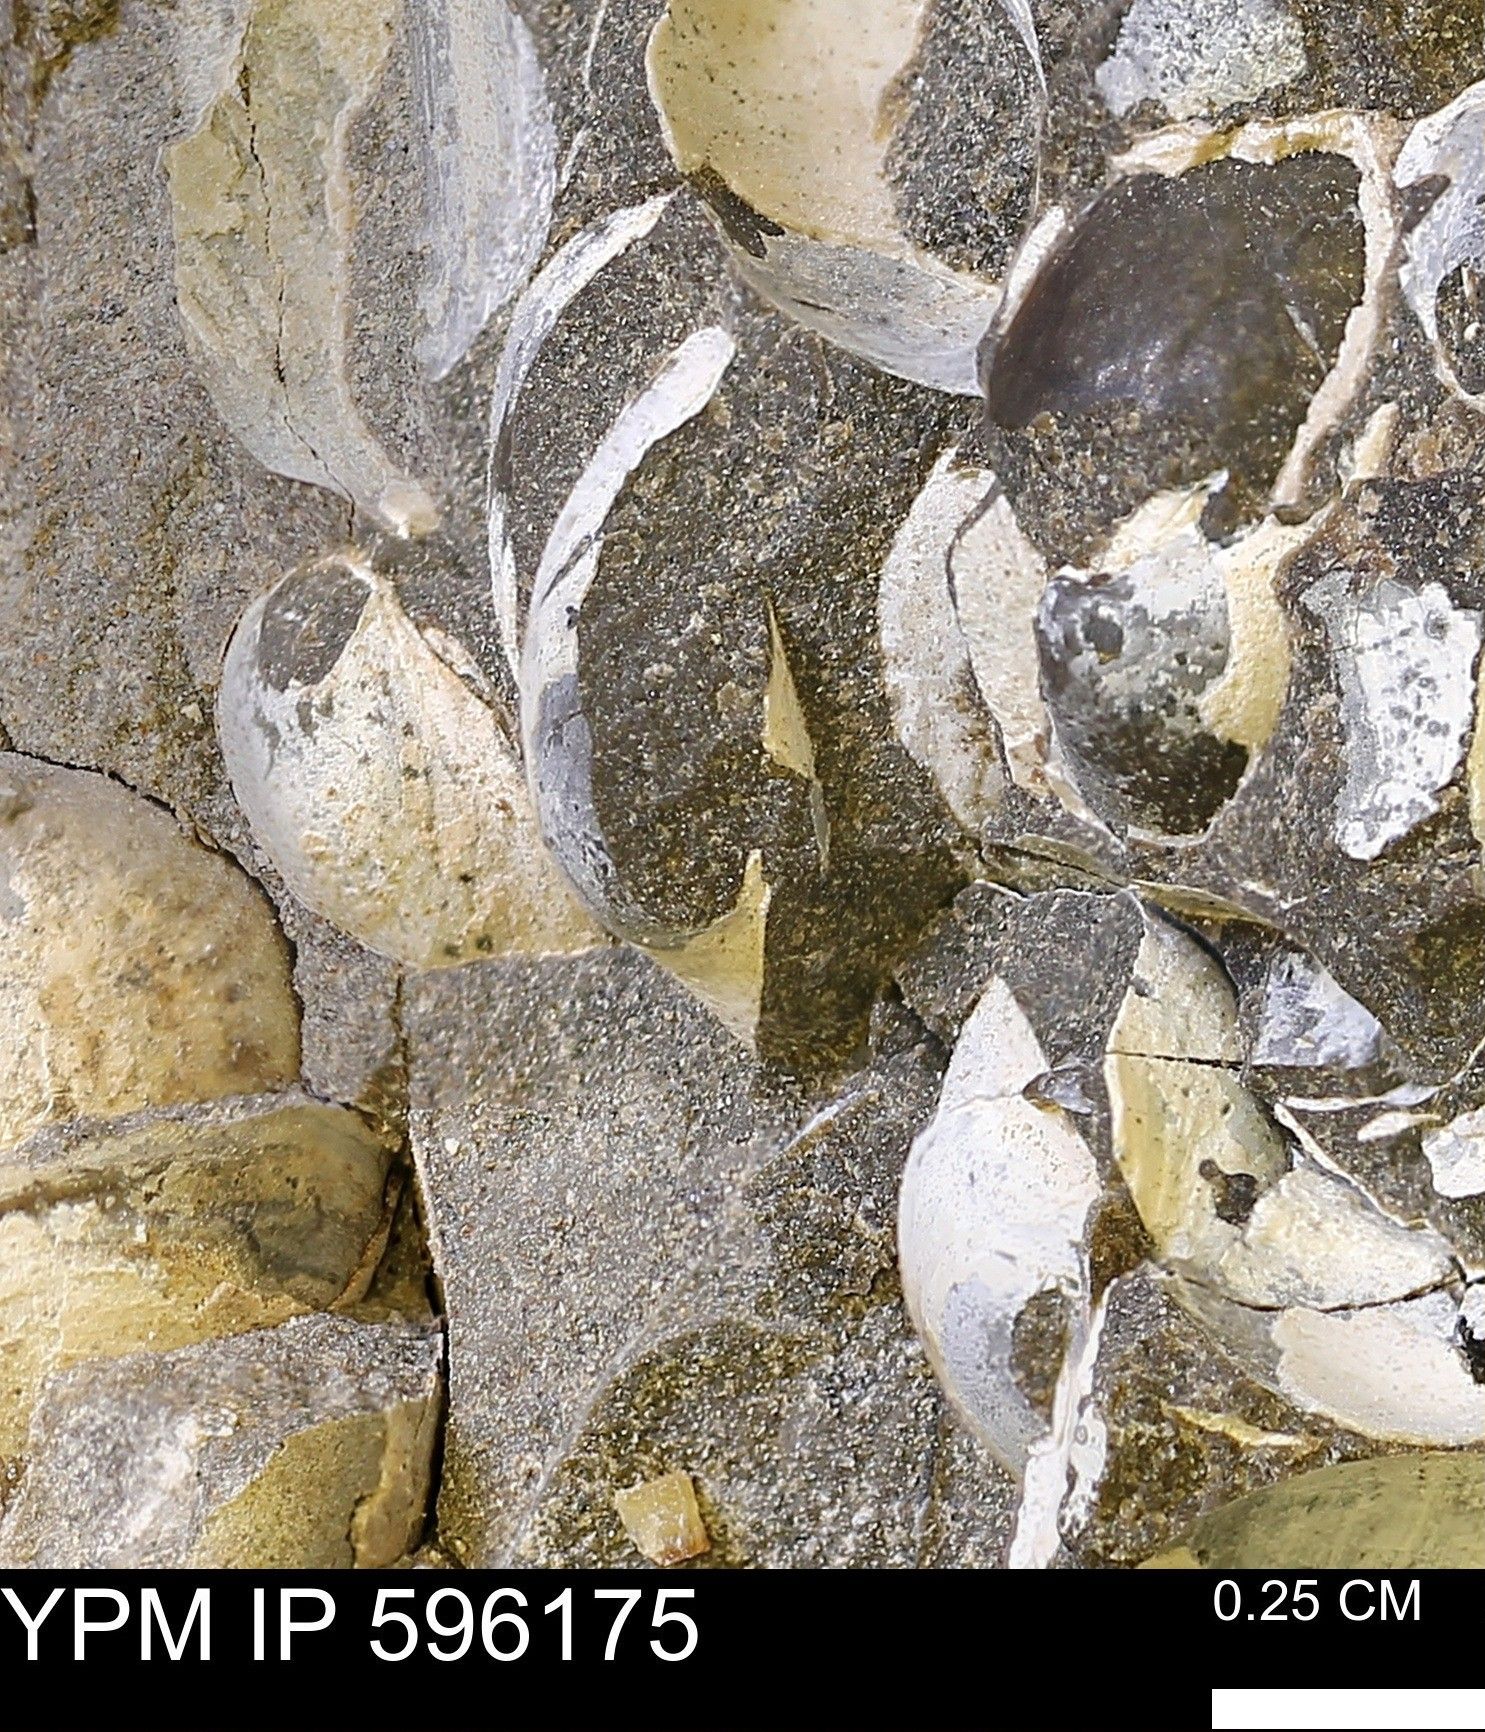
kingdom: Animalia
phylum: Mollusca
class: Bivalvia
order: Arcida
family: Limopsidae
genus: Limopsis
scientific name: Limopsis
